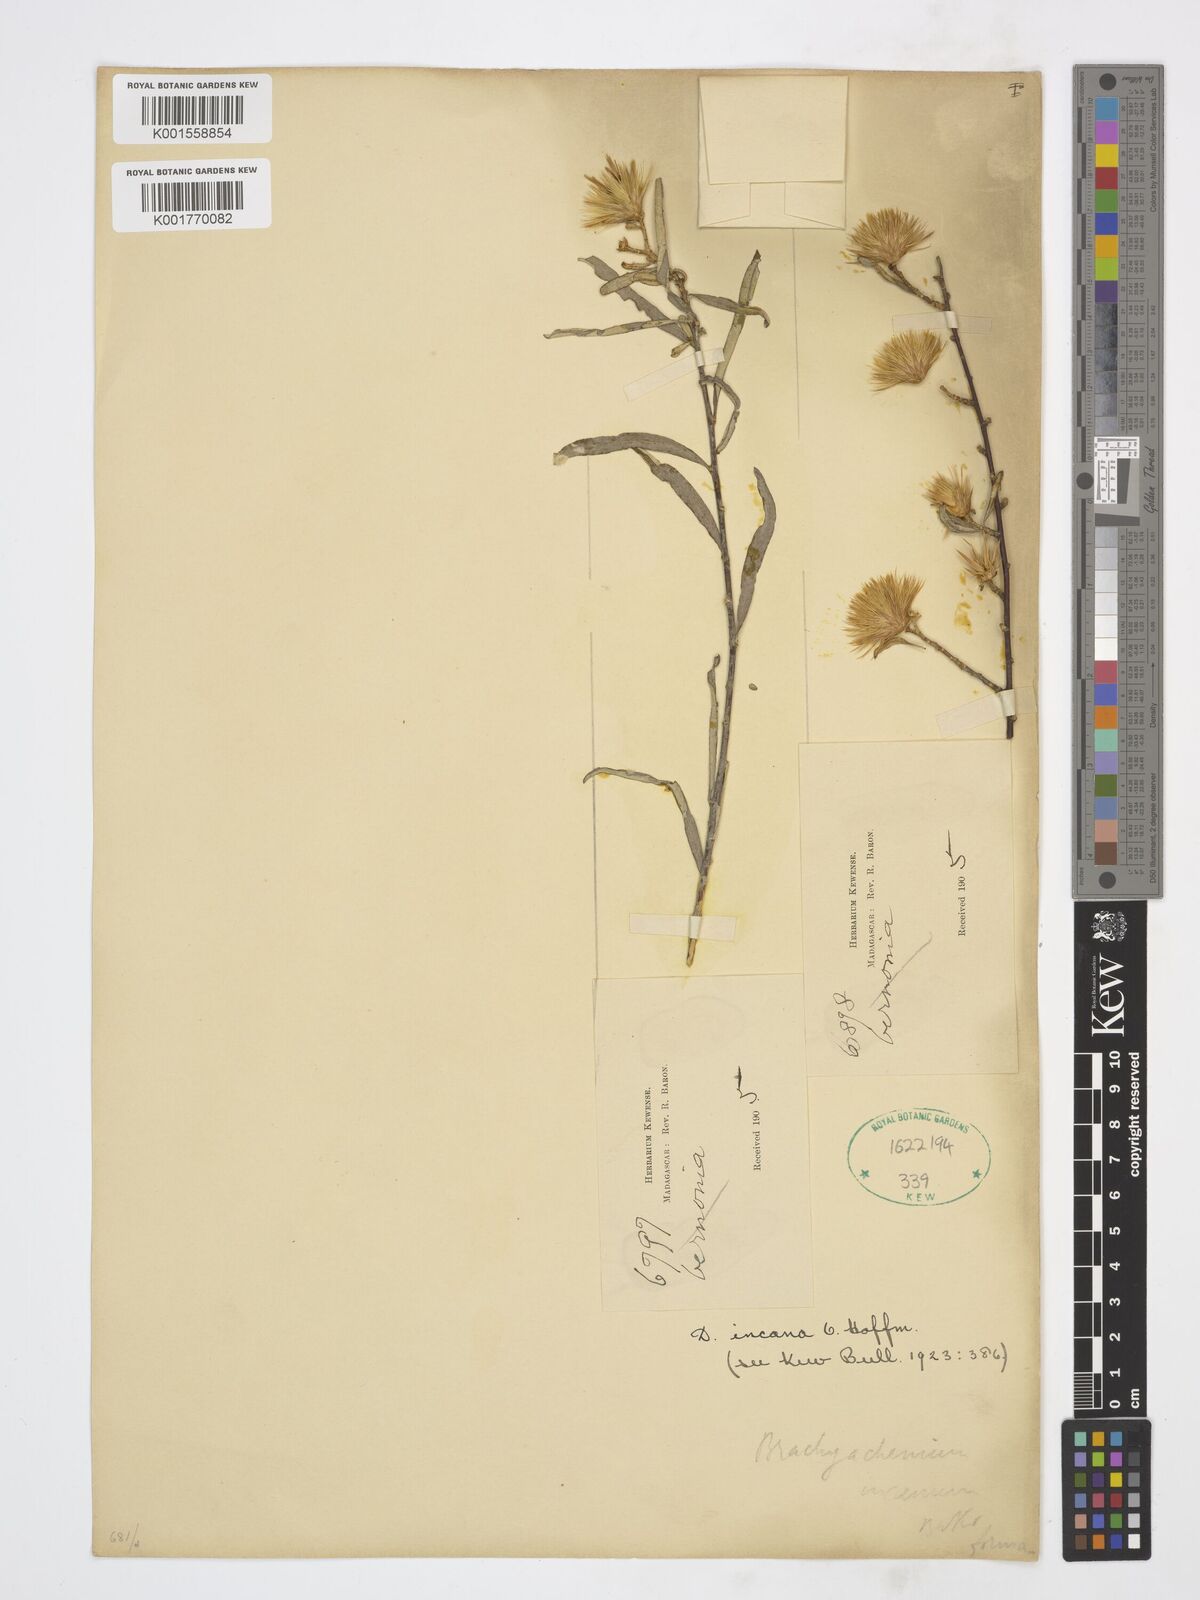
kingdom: Plantae
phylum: Tracheophyta
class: Magnoliopsida
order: Asterales
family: Asteraceae
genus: Dicoma
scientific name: Dicoma incana
